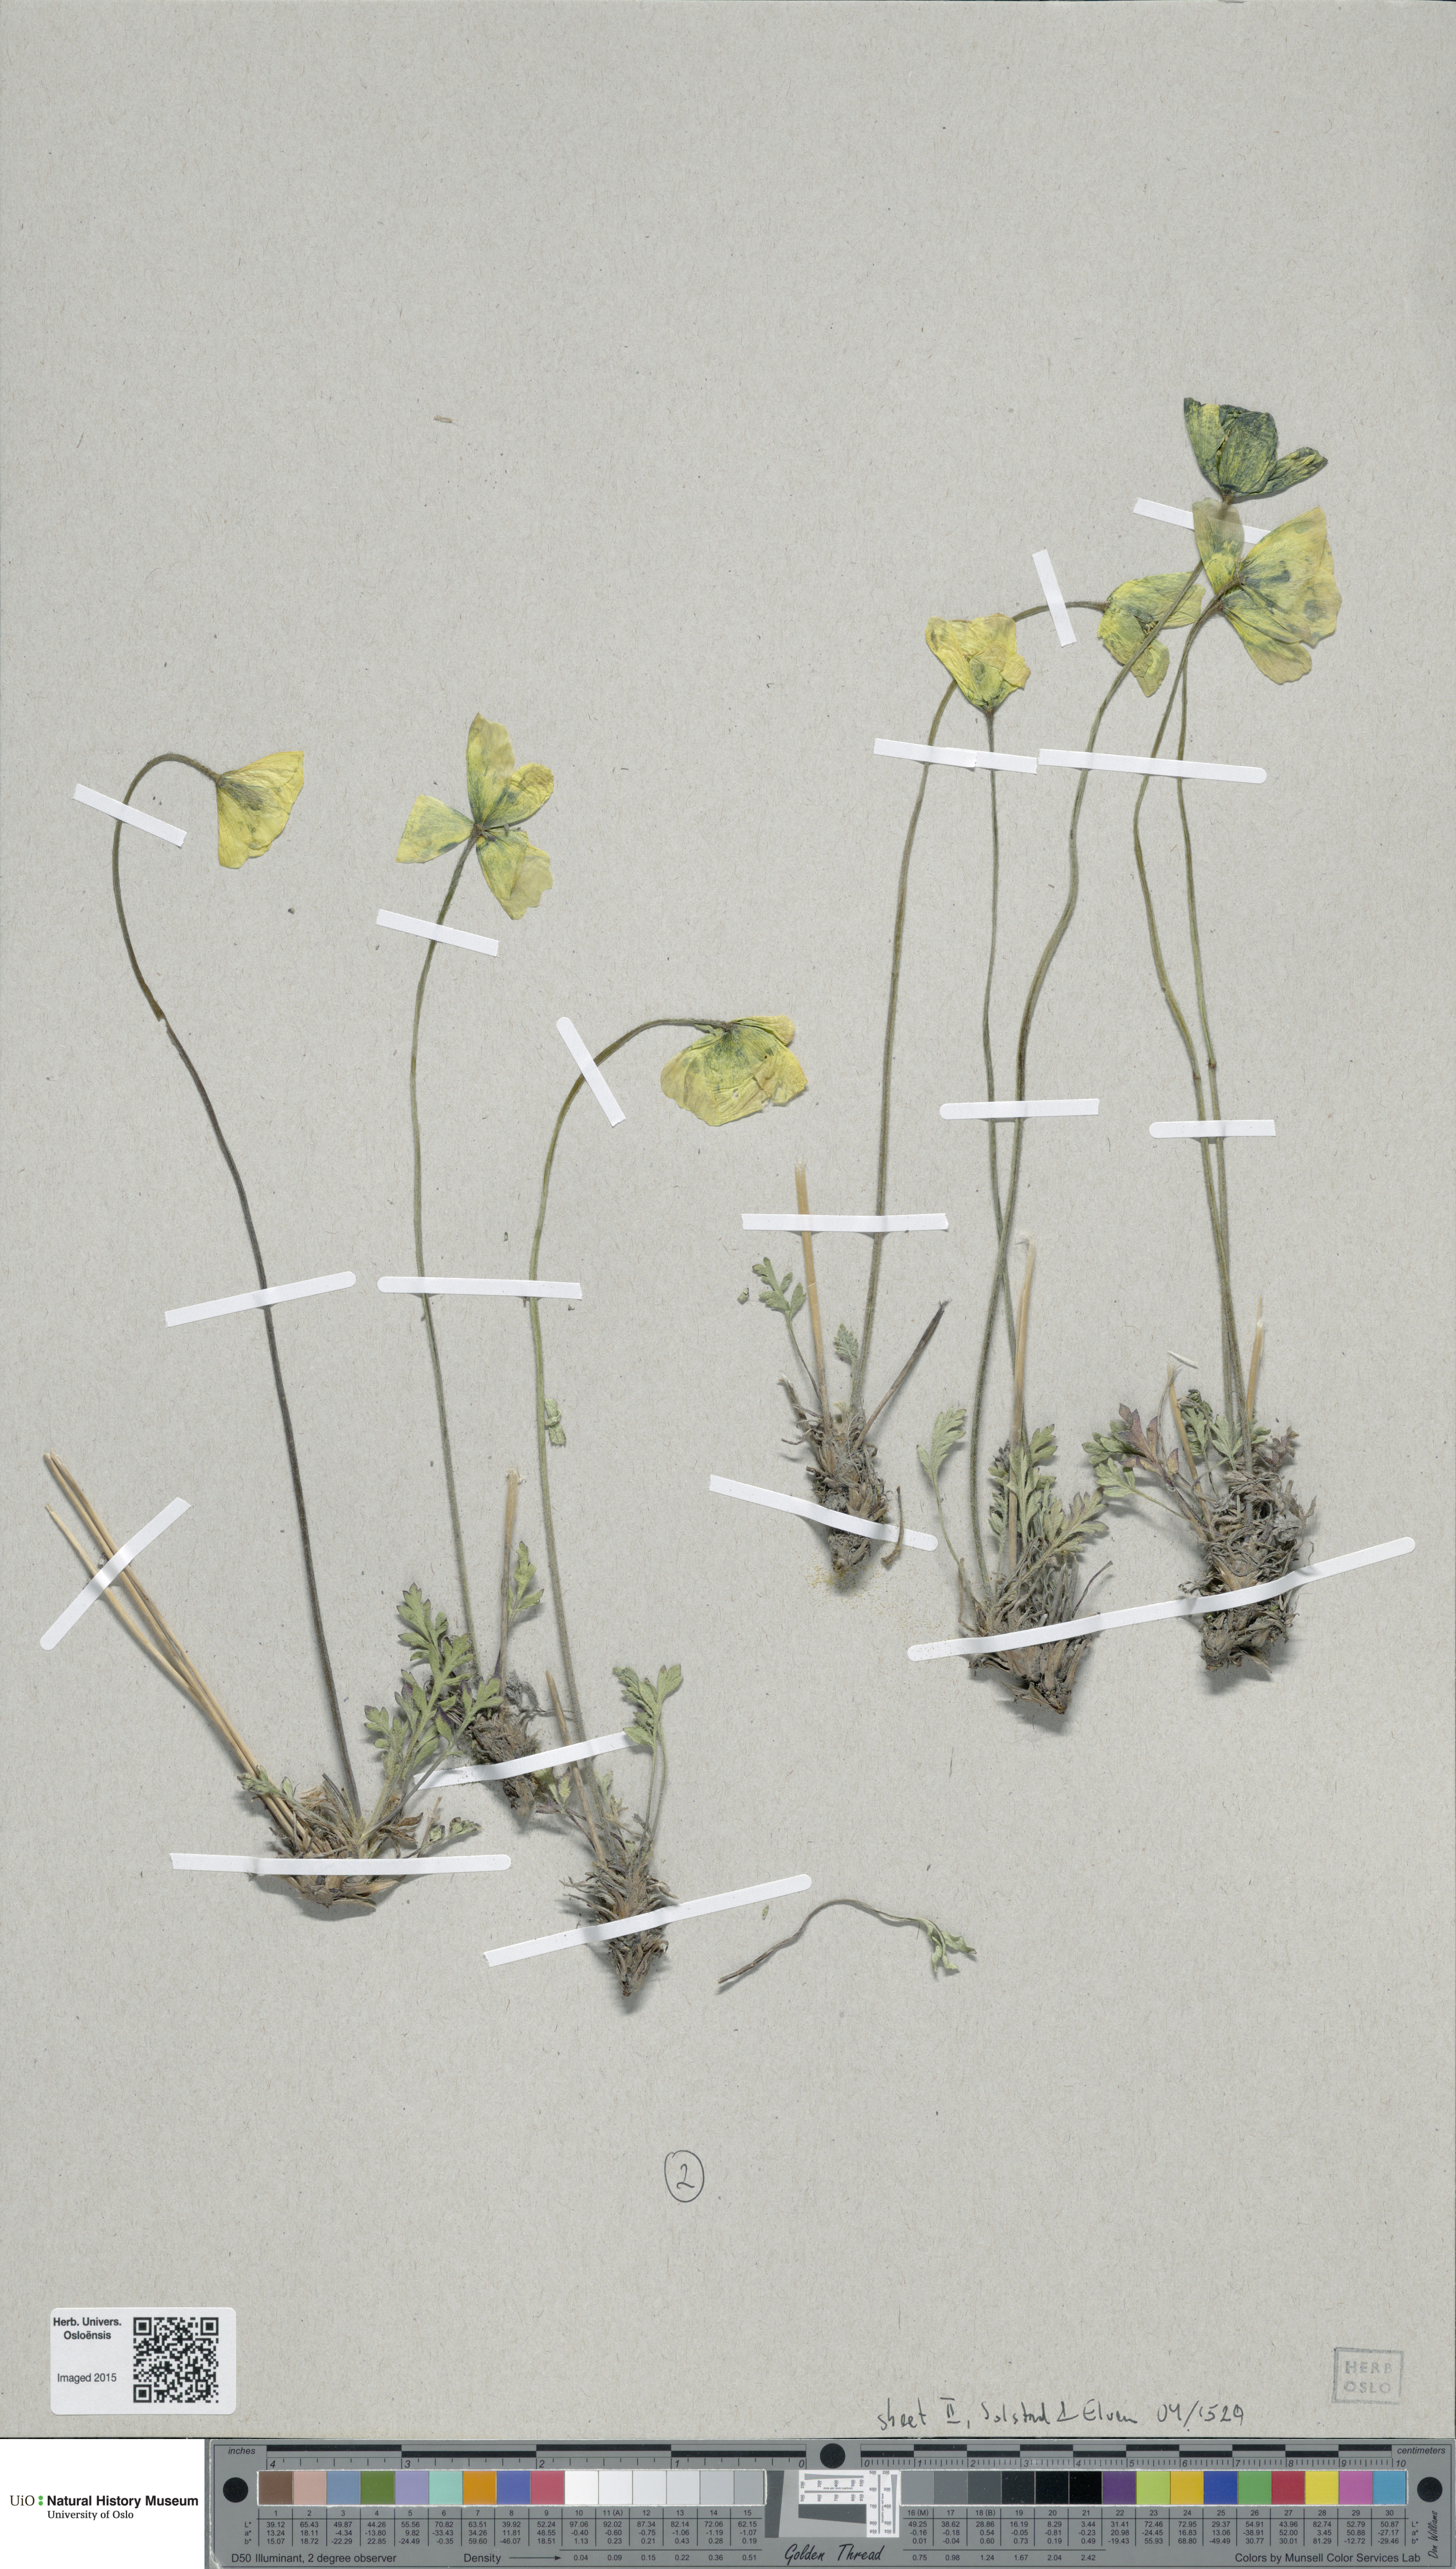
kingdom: Plantae
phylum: Tracheophyta
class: Magnoliopsida
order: Ranunculales
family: Papaveraceae
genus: Papaver
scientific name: Papaver variegatum
